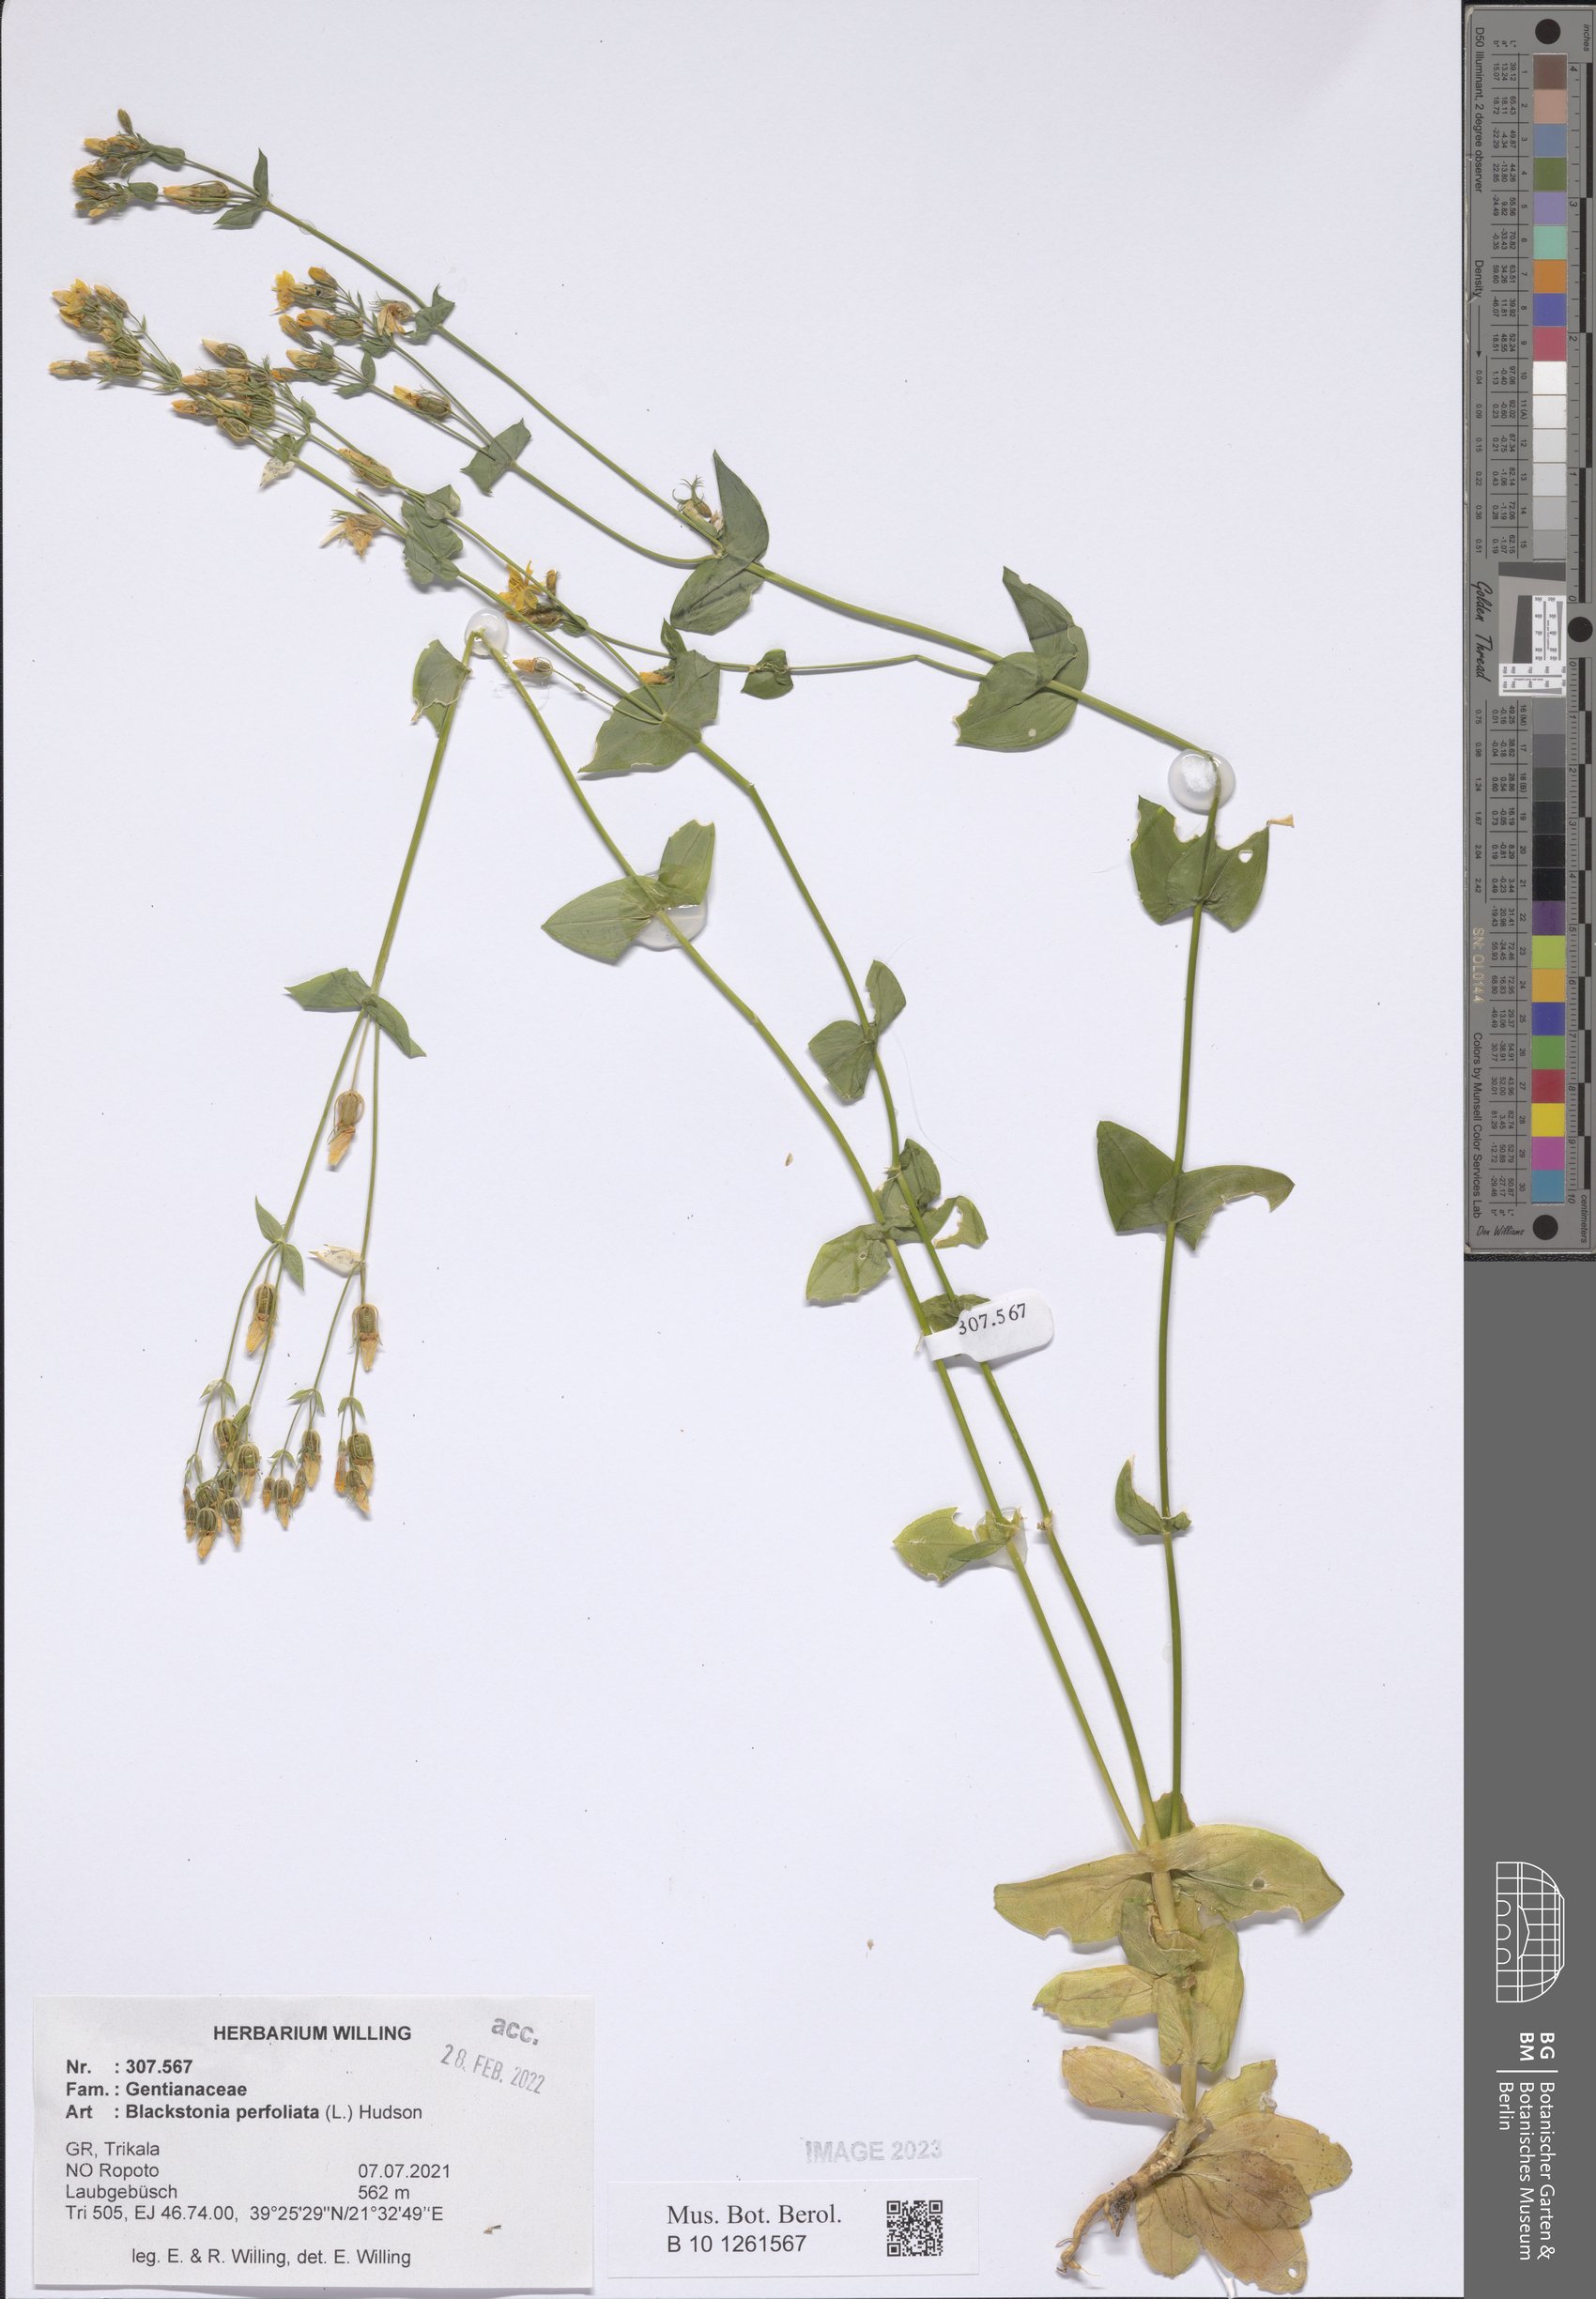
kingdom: Plantae
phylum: Tracheophyta
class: Magnoliopsida
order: Gentianales
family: Gentianaceae
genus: Blackstonia
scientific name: Blackstonia perfoliata
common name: Yellow-wort
